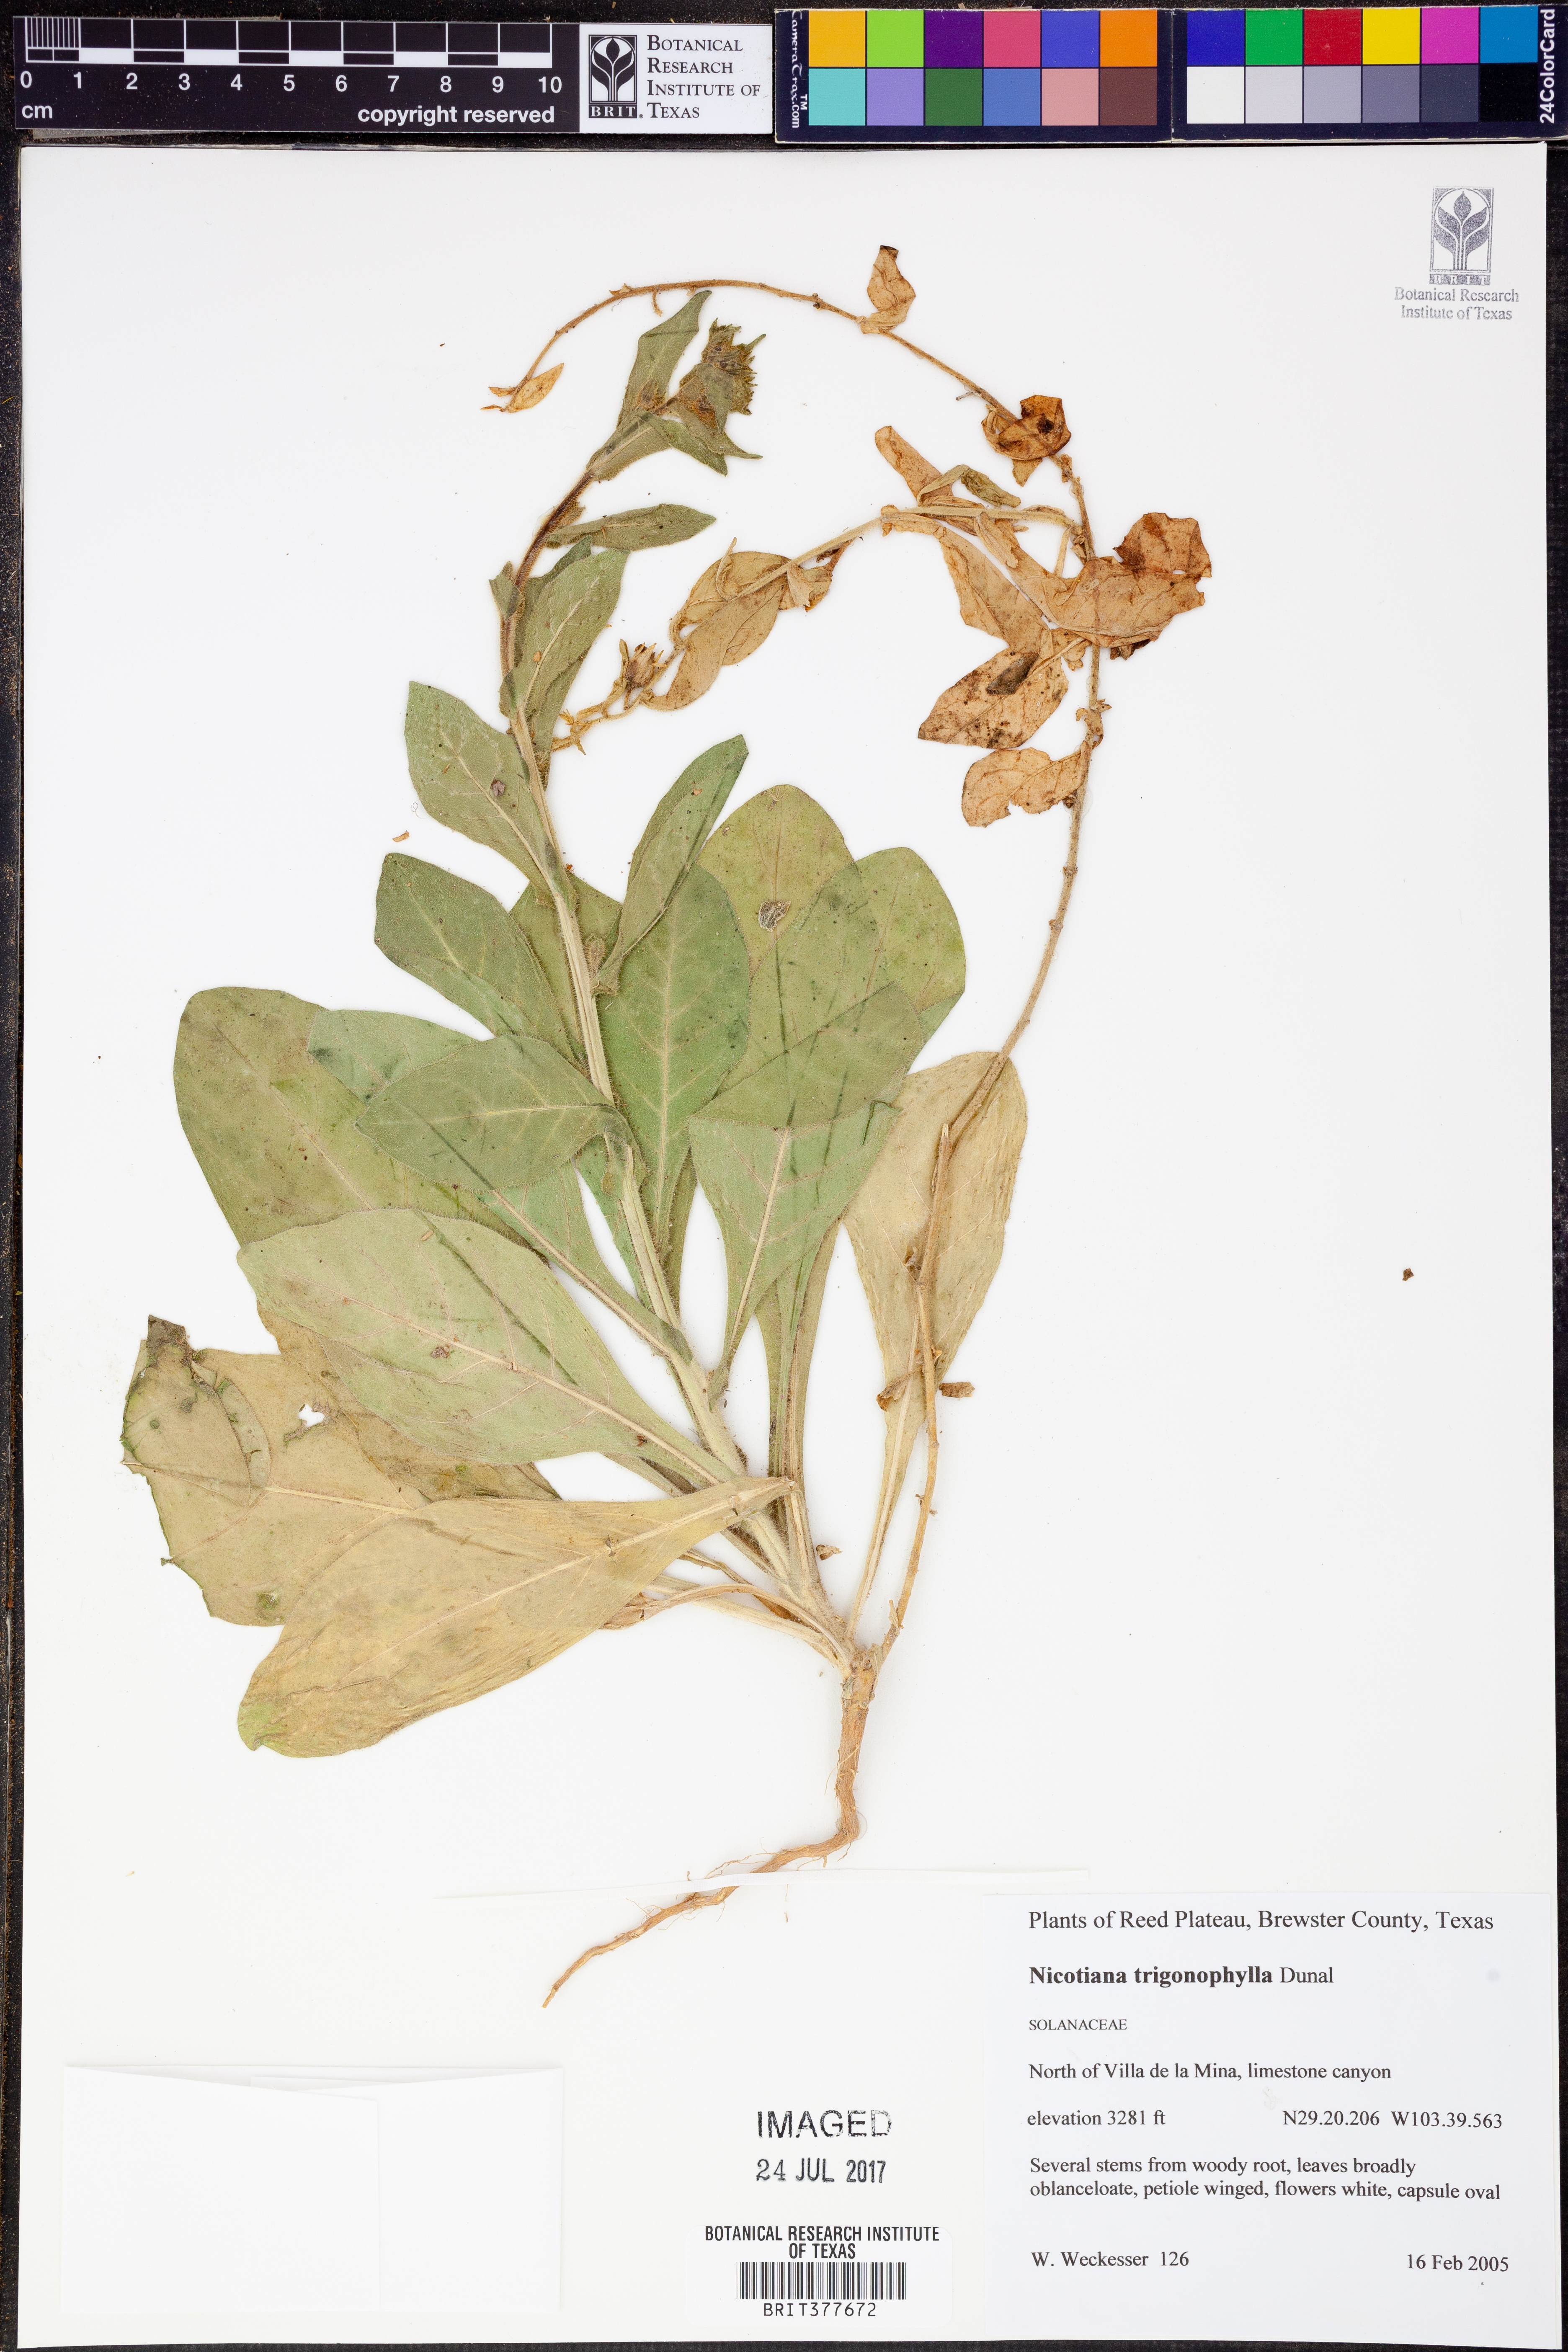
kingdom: Plantae
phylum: Tracheophyta
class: Magnoliopsida
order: Solanales
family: Solanaceae
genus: Nicotiana
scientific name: Nicotiana obtusifolia
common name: Desert tobacco
